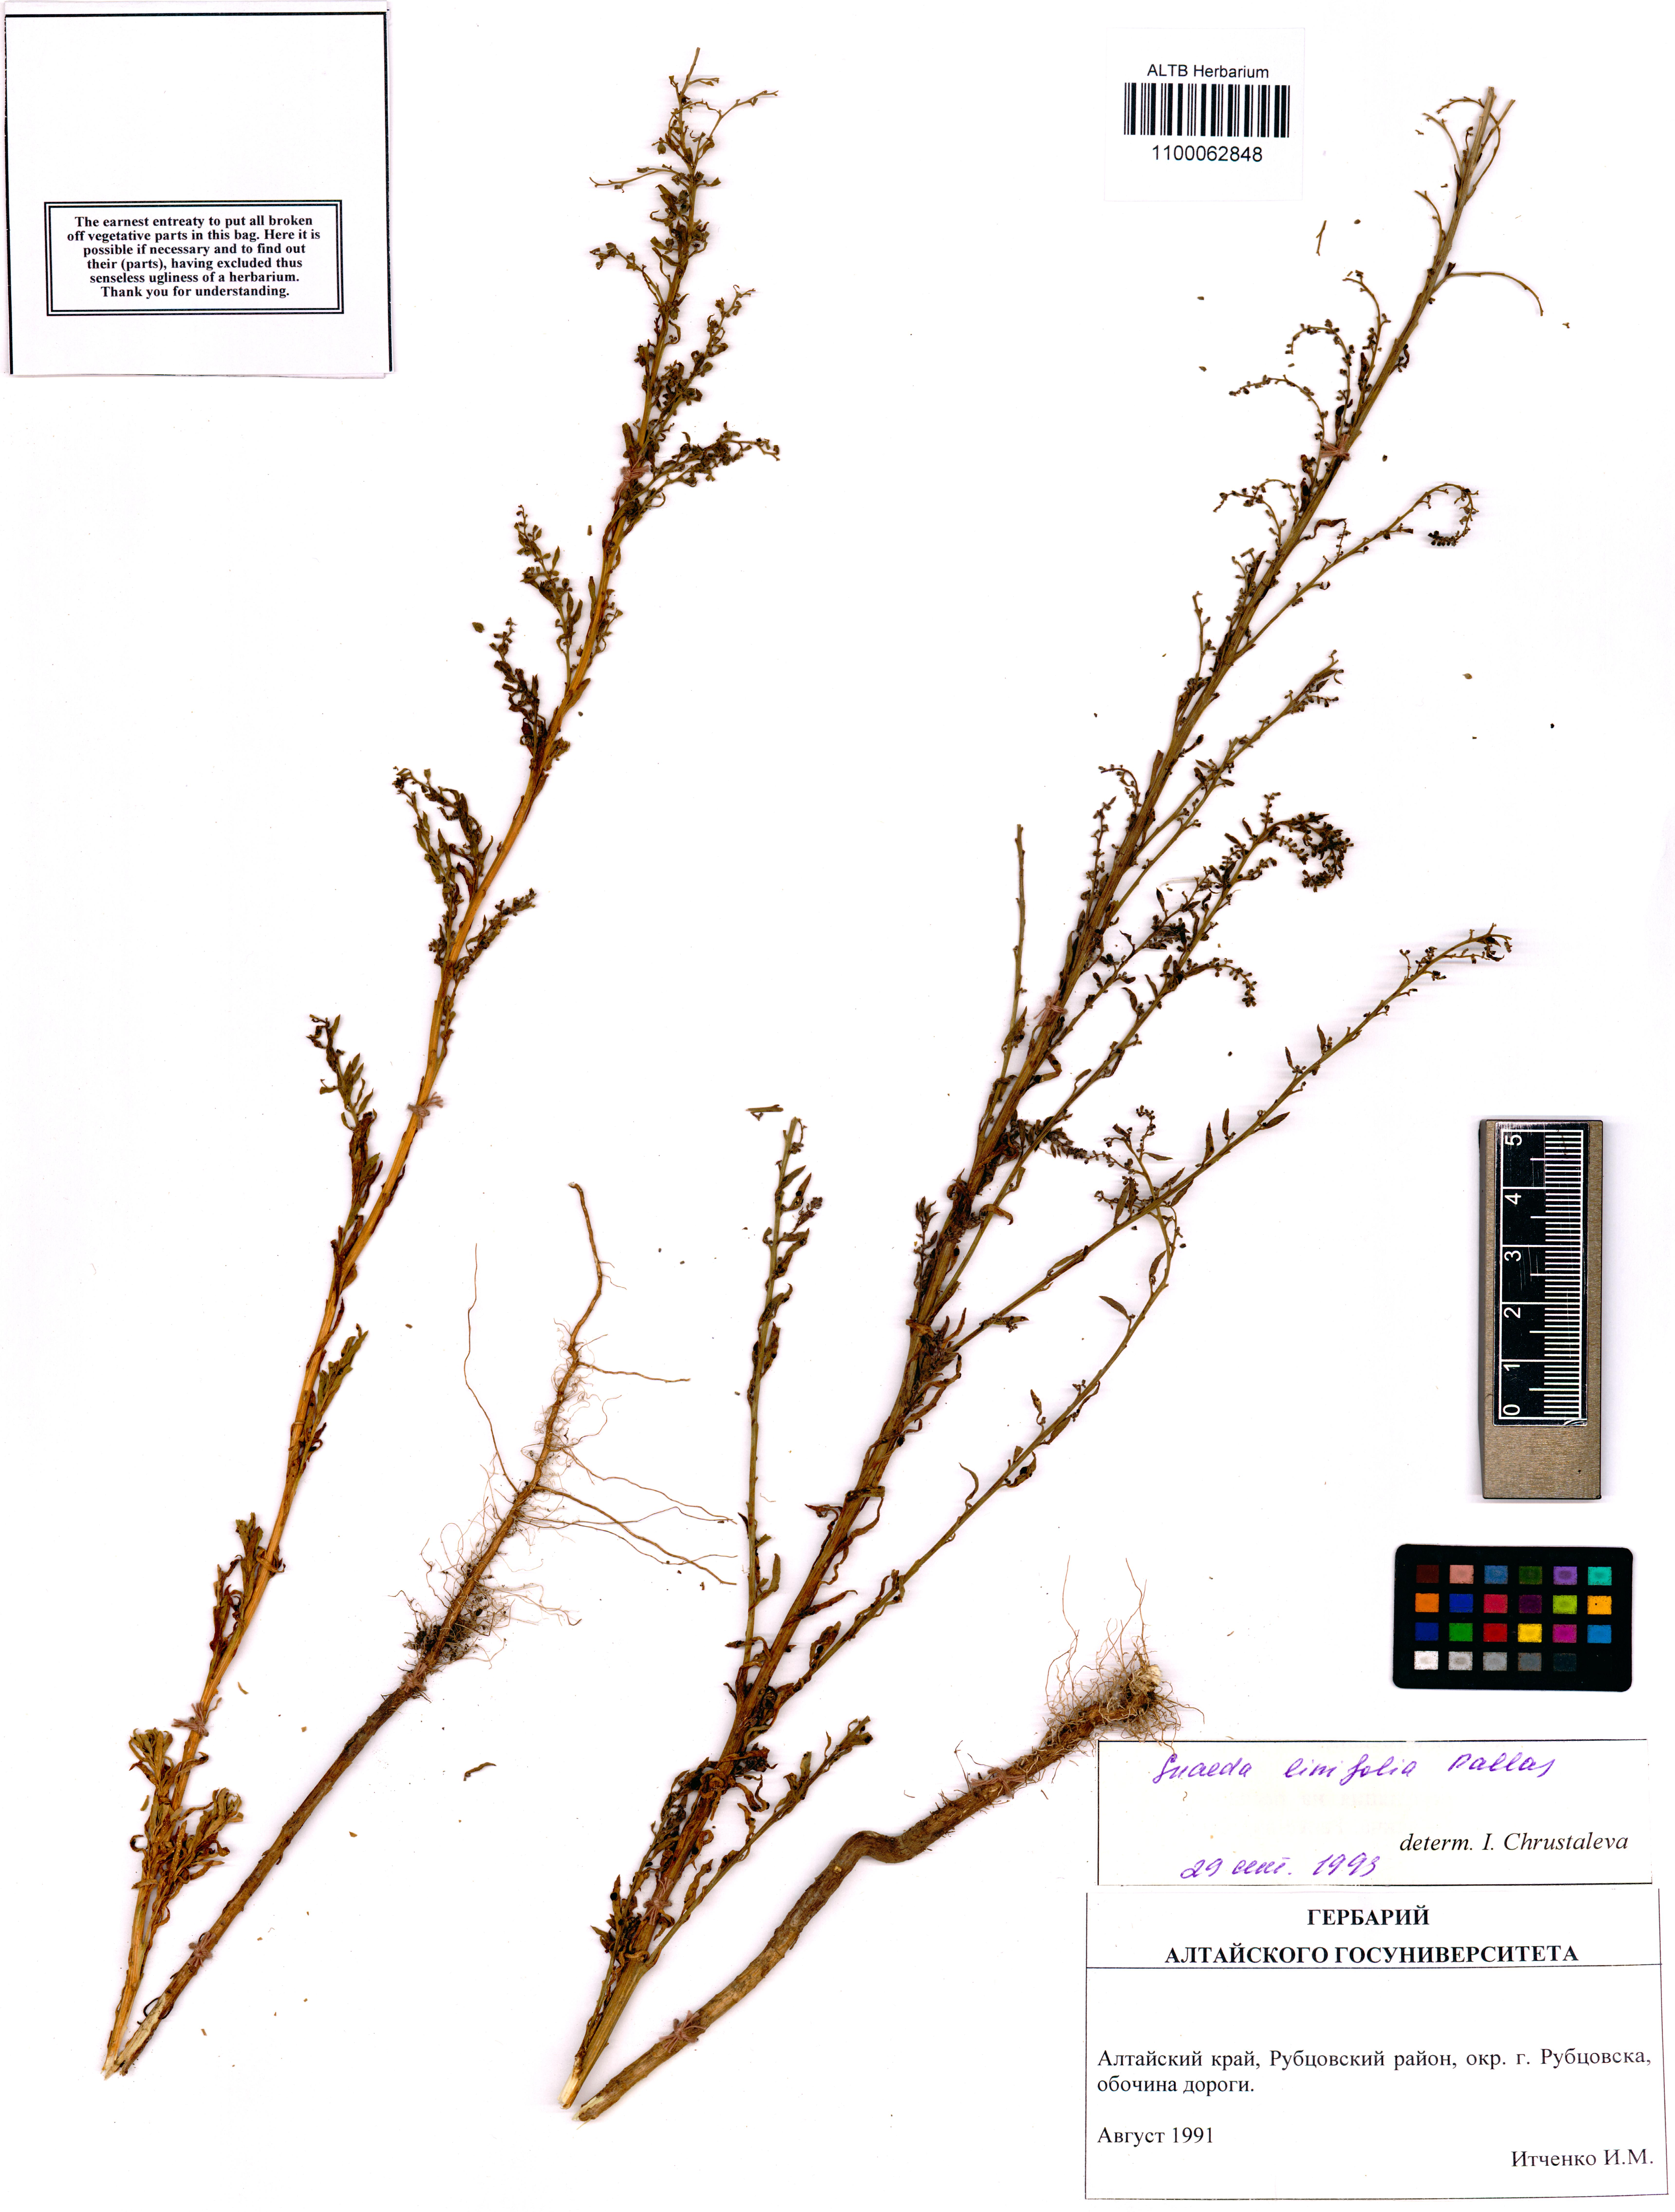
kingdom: Plantae
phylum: Tracheophyta
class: Magnoliopsida
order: Caryophyllales
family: Amaranthaceae
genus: Suaeda
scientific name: Suaeda linifolia
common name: Pin-leaf seepweed
